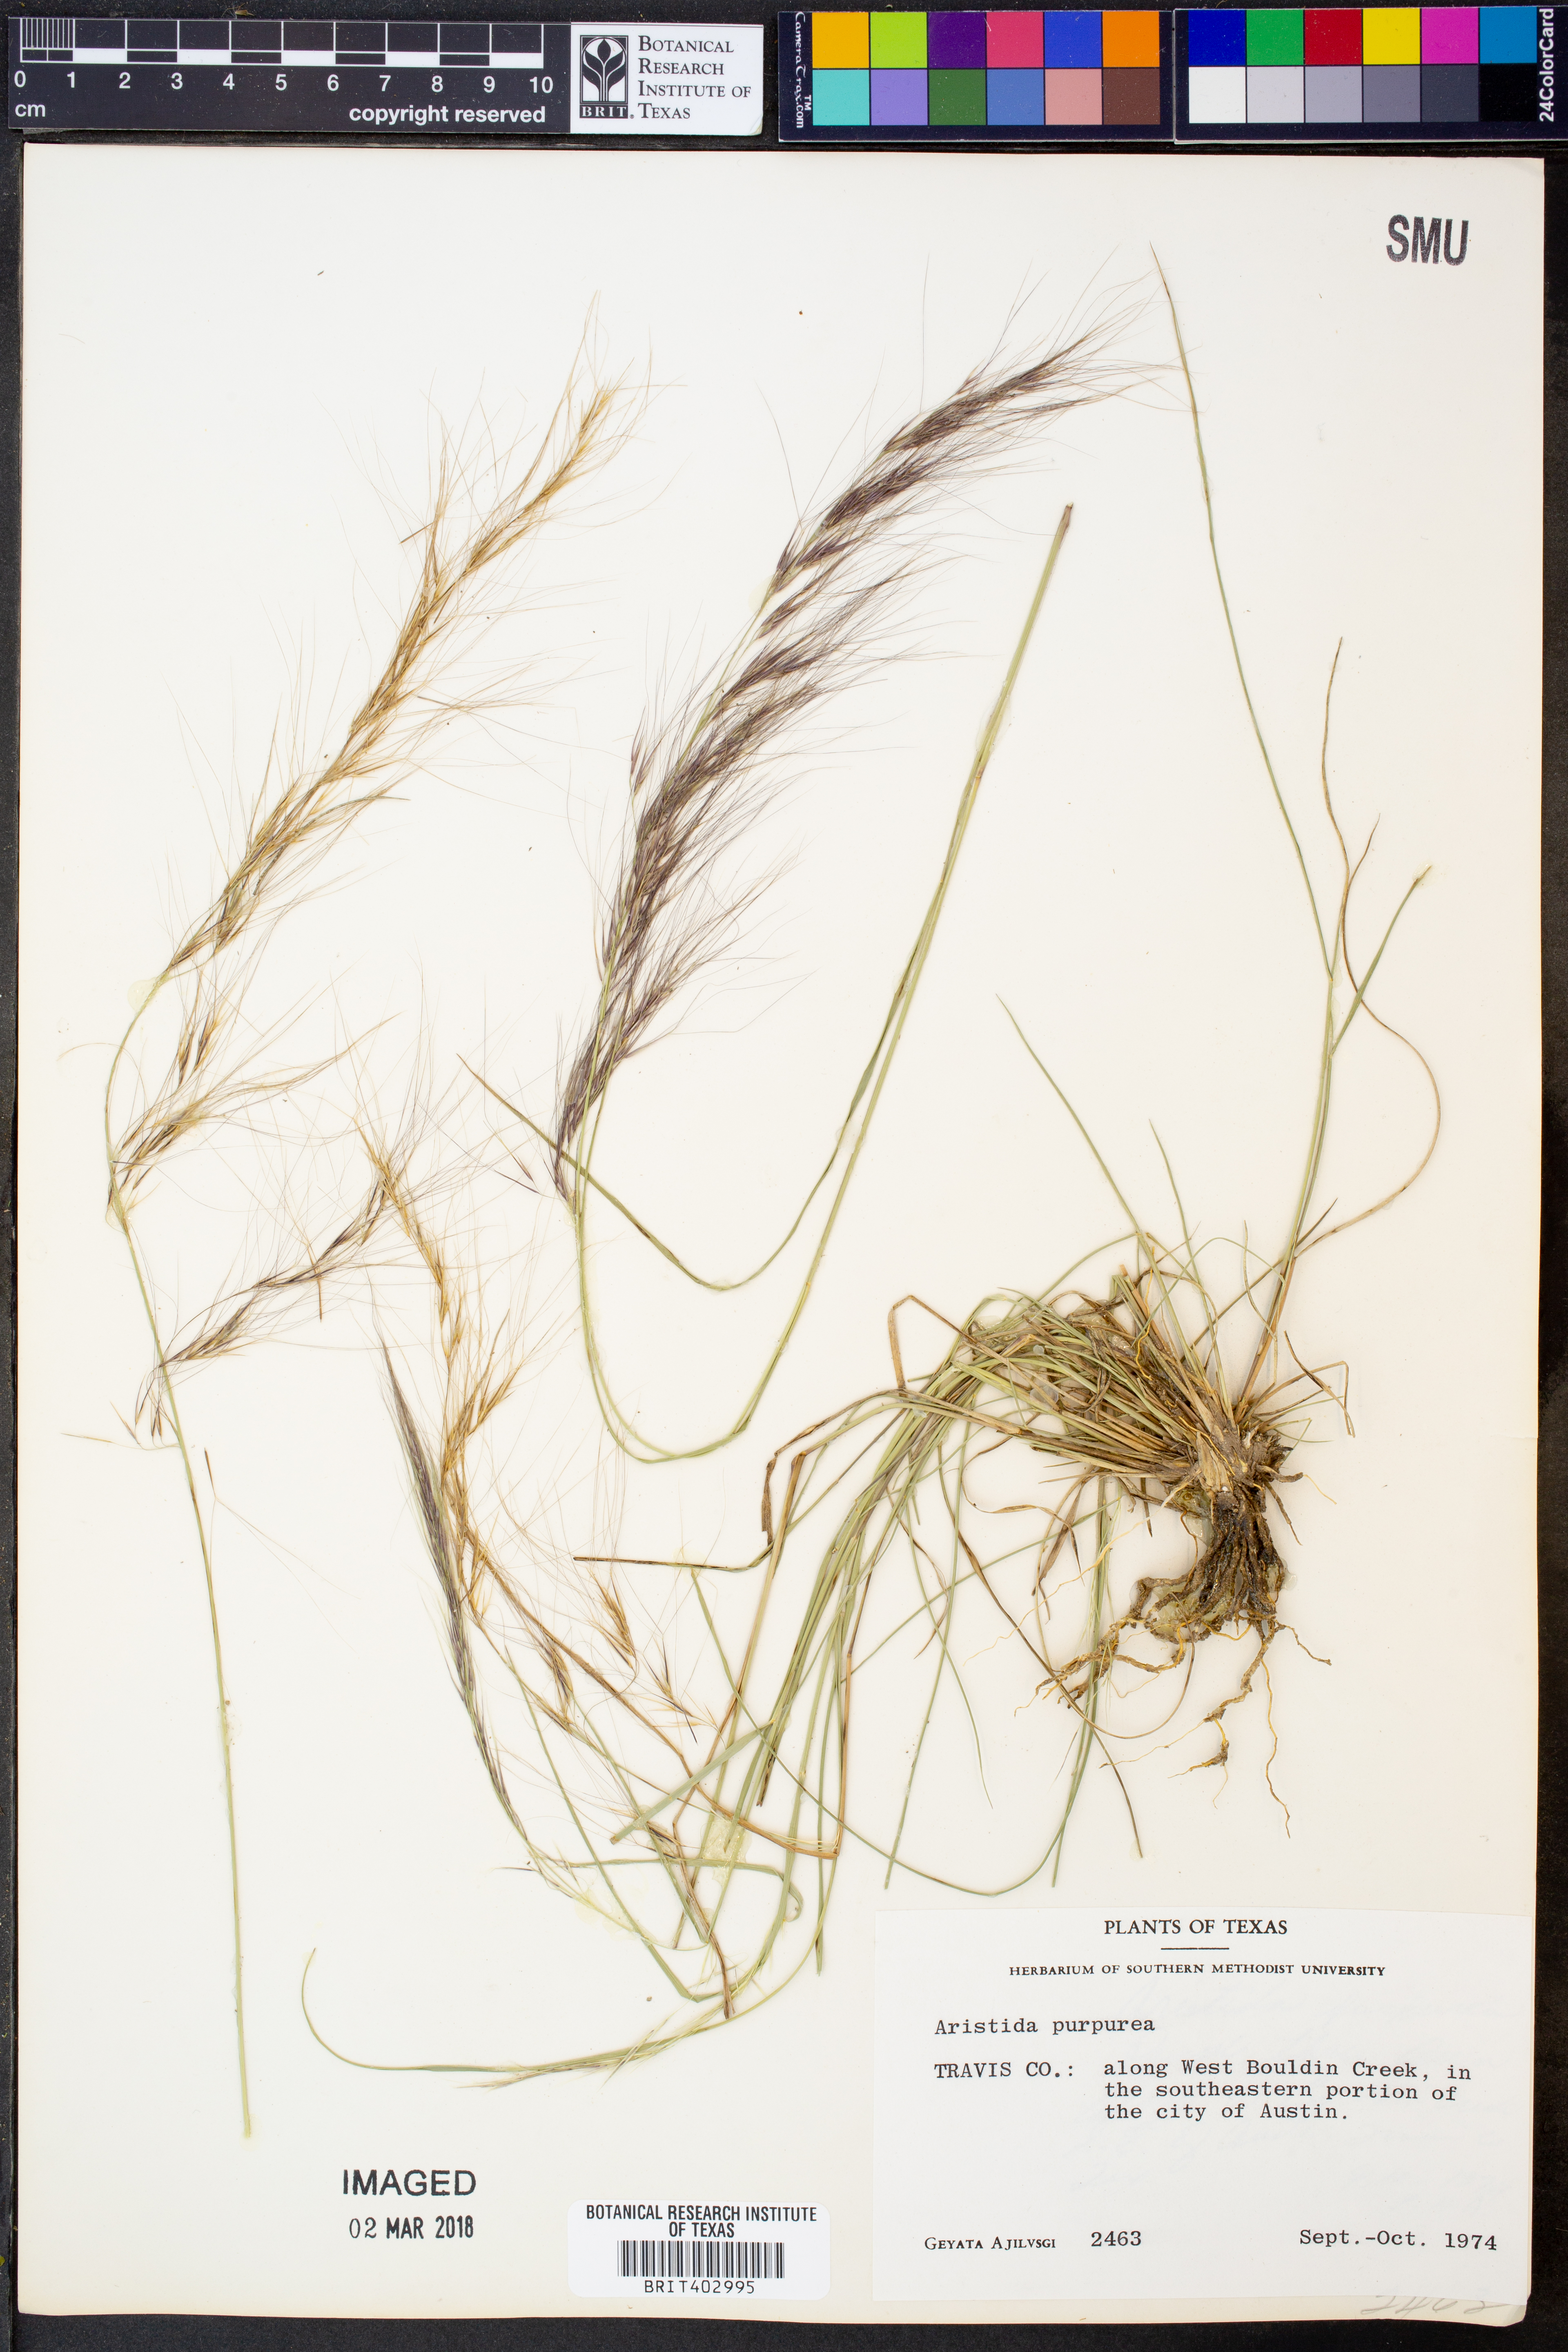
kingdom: Plantae
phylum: Tracheophyta
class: Liliopsida
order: Poales
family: Poaceae
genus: Aristida
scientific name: Aristida purpurea
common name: Purple threeawn
